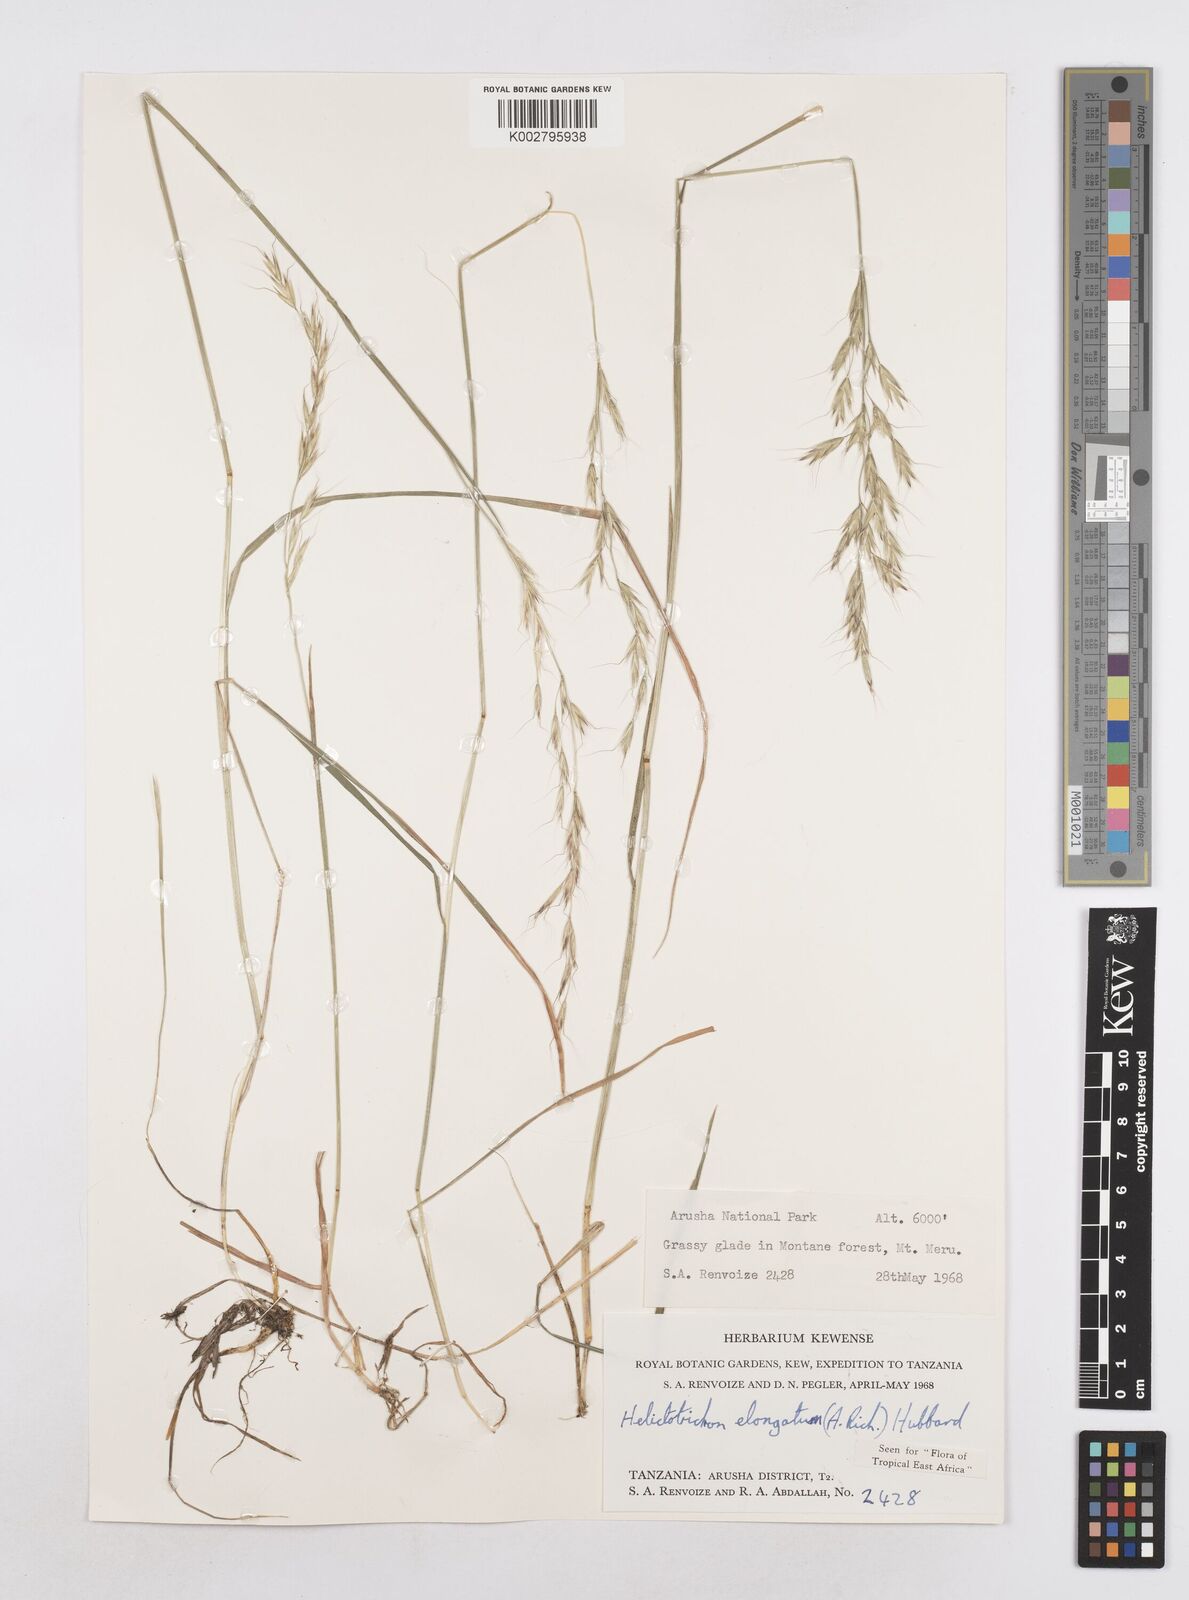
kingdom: Plantae
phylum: Tracheophyta
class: Liliopsida
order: Poales
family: Poaceae
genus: Trisetopsis
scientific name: Trisetopsis elongata
